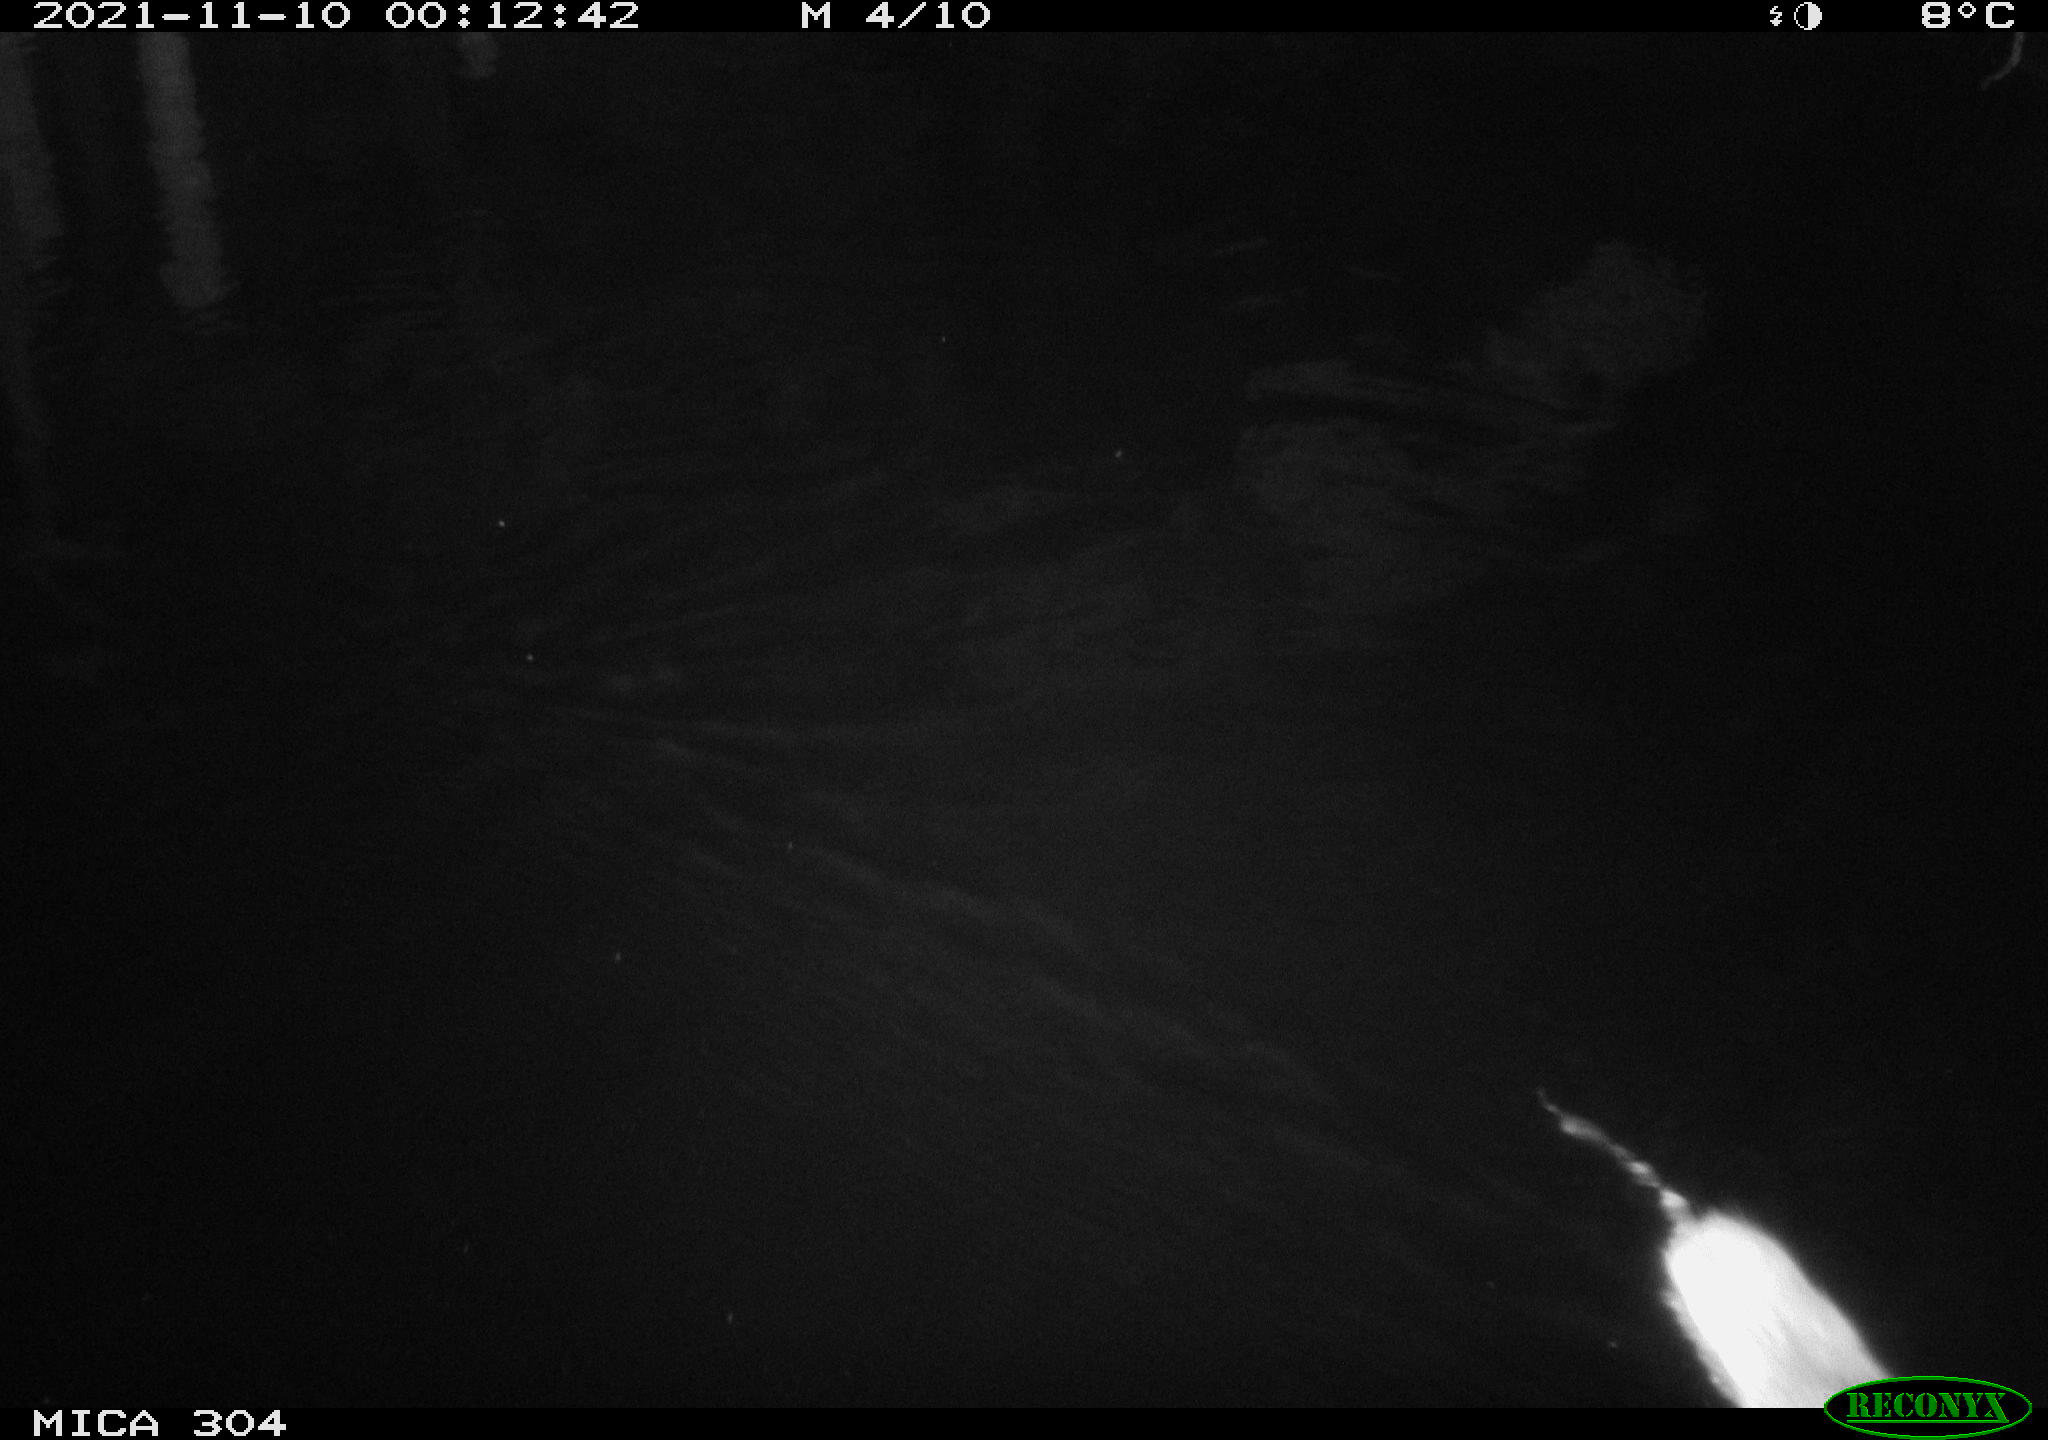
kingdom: Animalia
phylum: Chordata
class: Mammalia
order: Rodentia
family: Muridae
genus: Rattus
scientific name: Rattus norvegicus
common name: Brown rat
